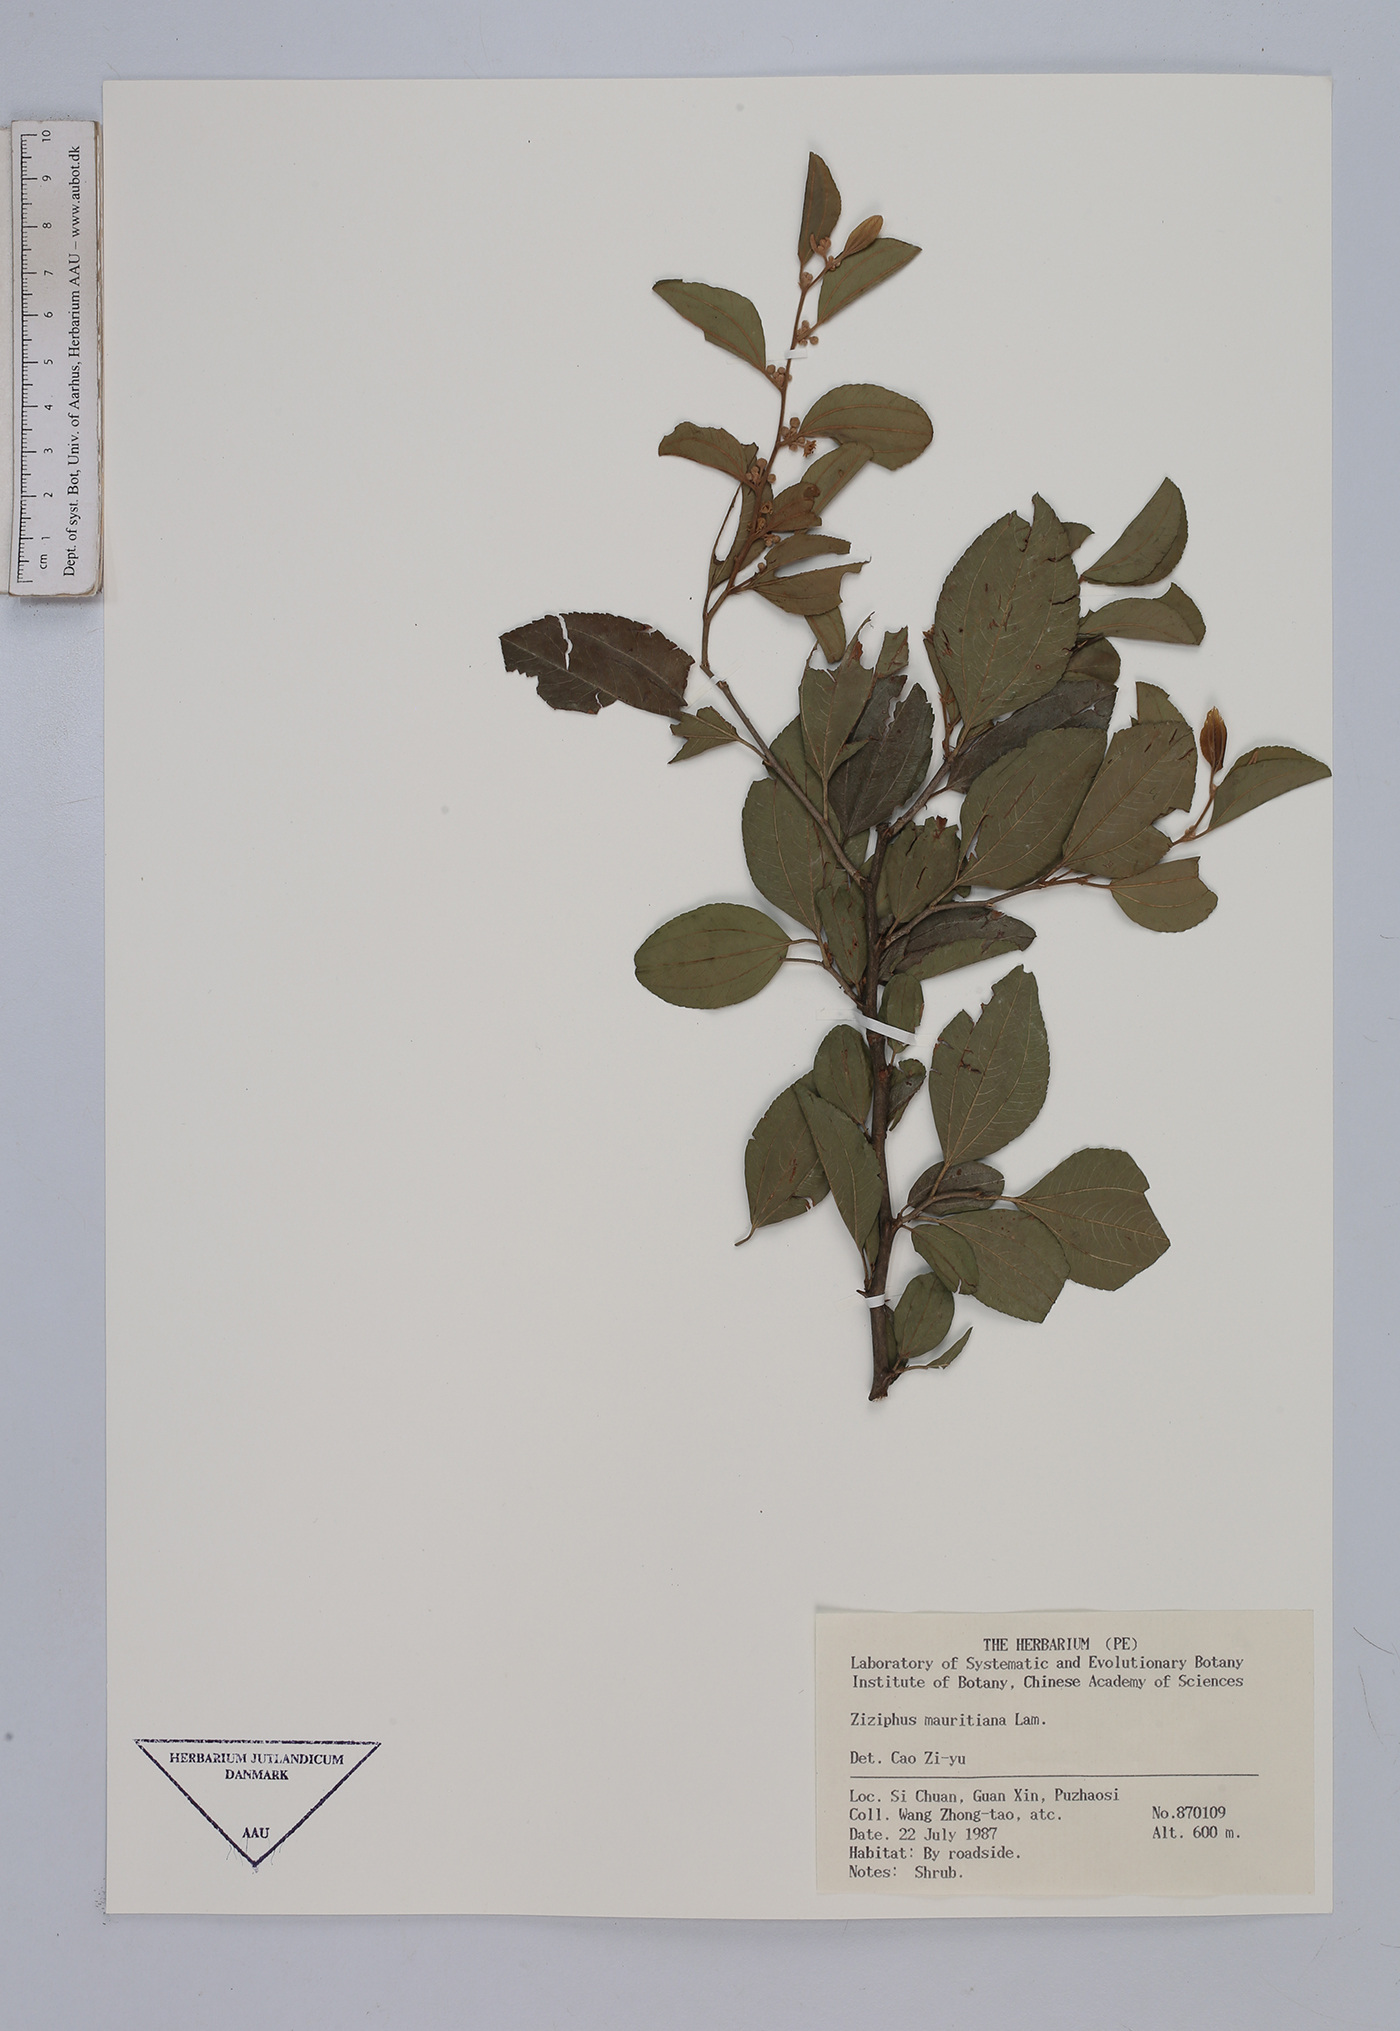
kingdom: Plantae
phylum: Tracheophyta
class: Magnoliopsida
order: Rosales
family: Rhamnaceae
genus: Ziziphus
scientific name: Ziziphus mauritiana
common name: Indian jujube
